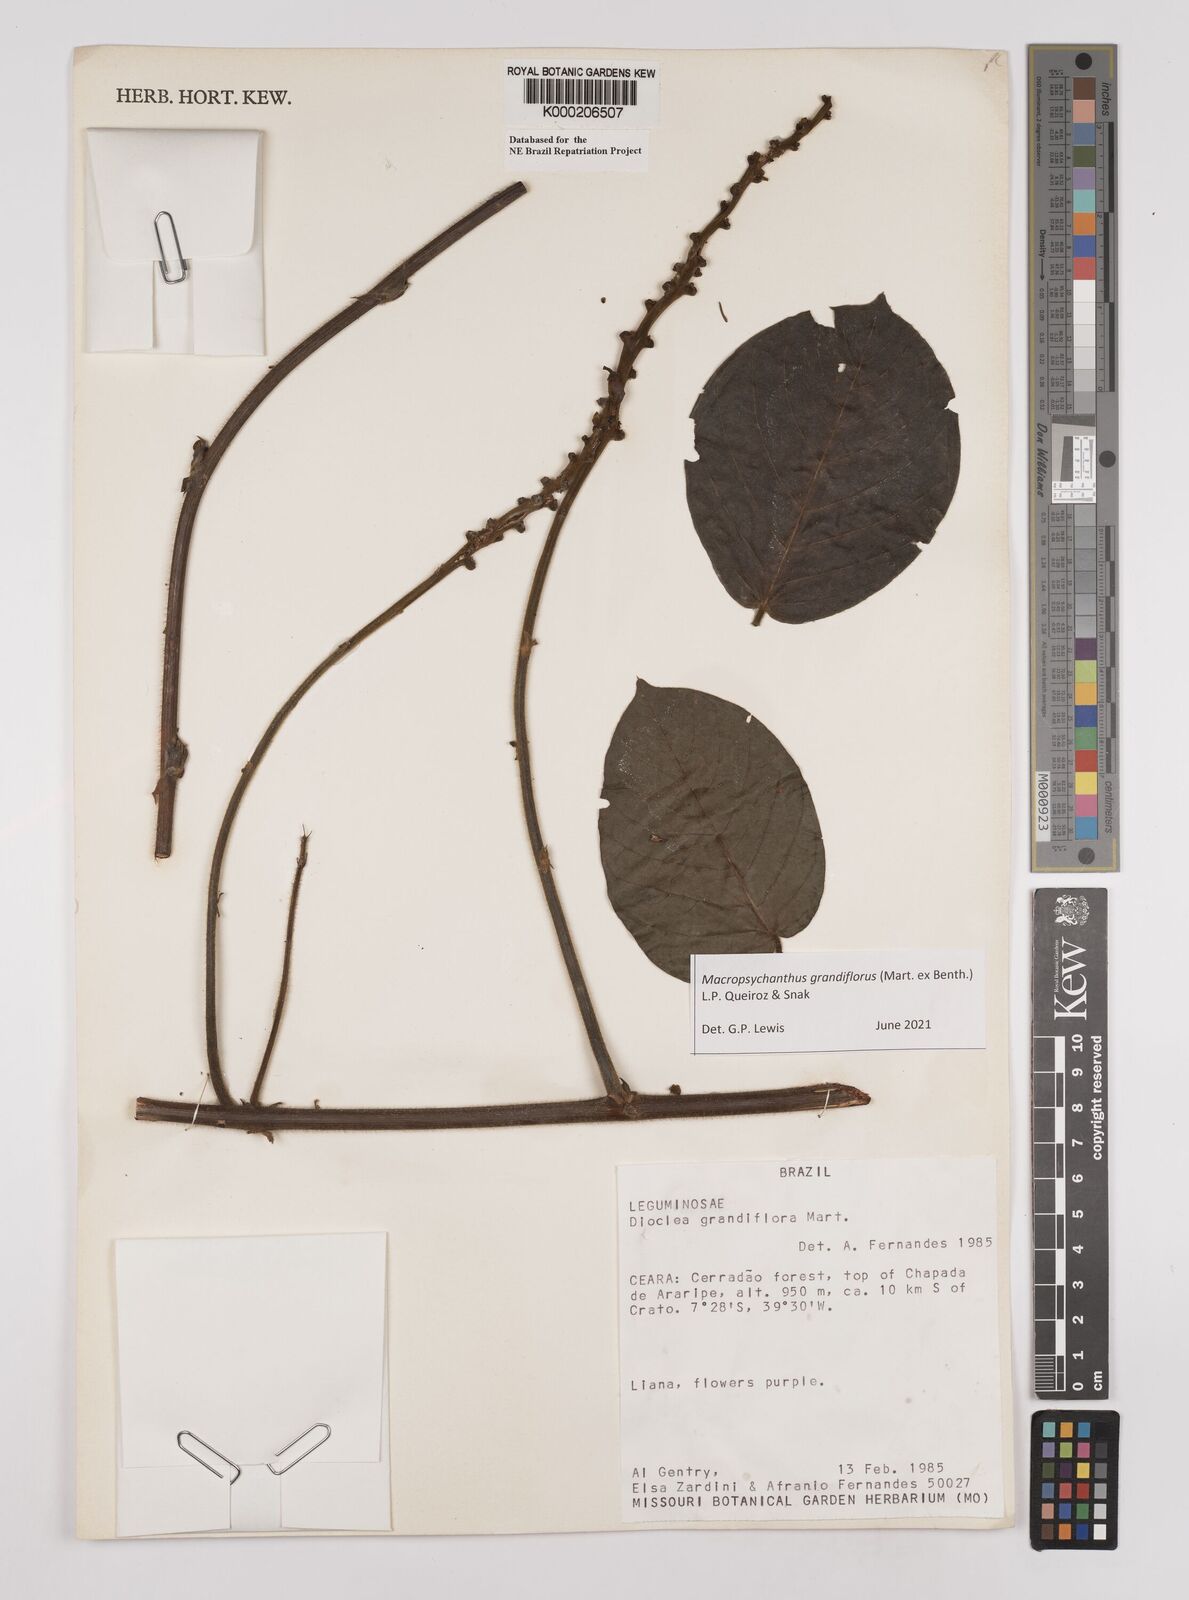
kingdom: Plantae
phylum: Tracheophyta
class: Magnoliopsida
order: Fabales
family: Fabaceae
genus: Macropsychanthus
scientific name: Macropsychanthus grandiflorus
